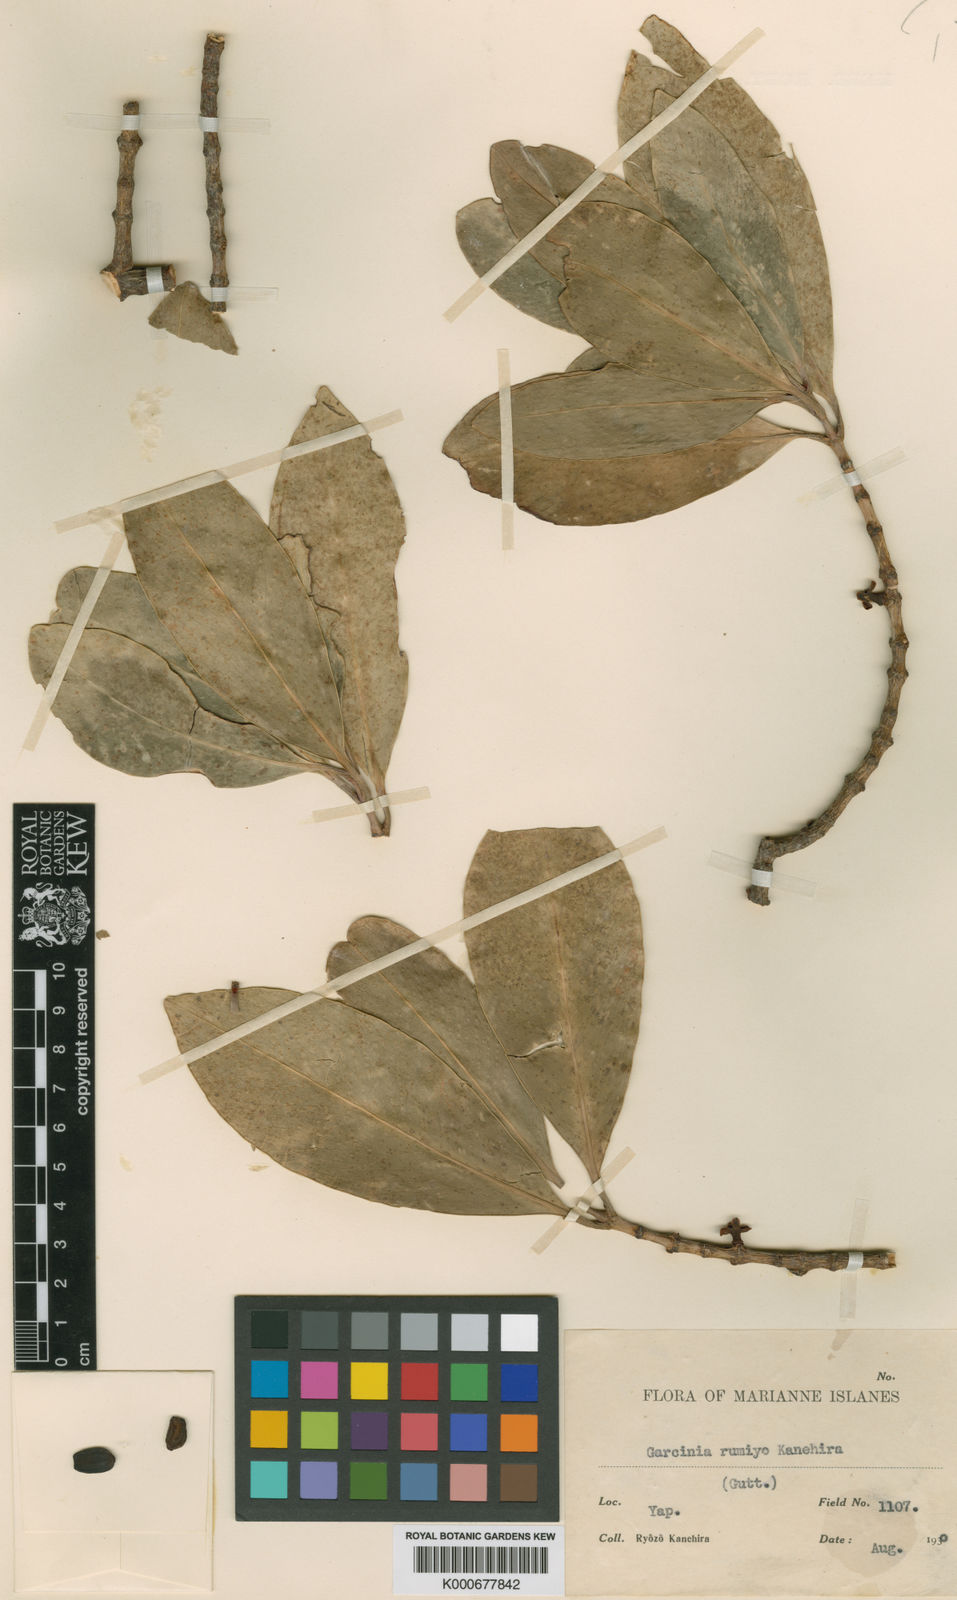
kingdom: Plantae
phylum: Tracheophyta
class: Magnoliopsida
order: Malpighiales
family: Clusiaceae
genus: Garcinia
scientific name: Garcinia rumiyo
